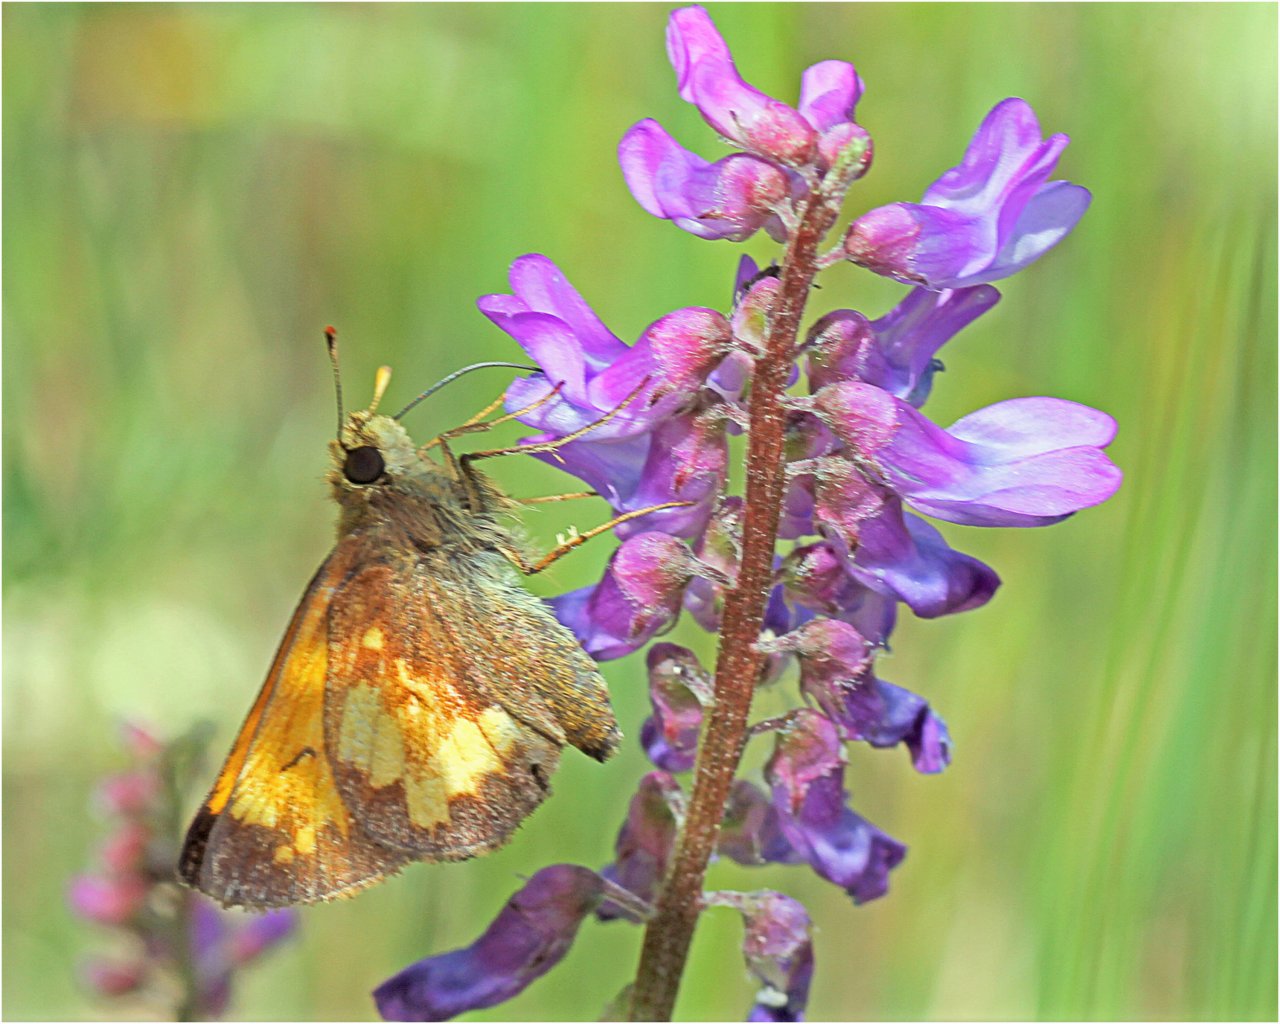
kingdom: Animalia
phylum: Arthropoda
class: Insecta
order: Lepidoptera
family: Hesperiidae
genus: Lon
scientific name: Lon hobomok
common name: Hobomok Skipper
